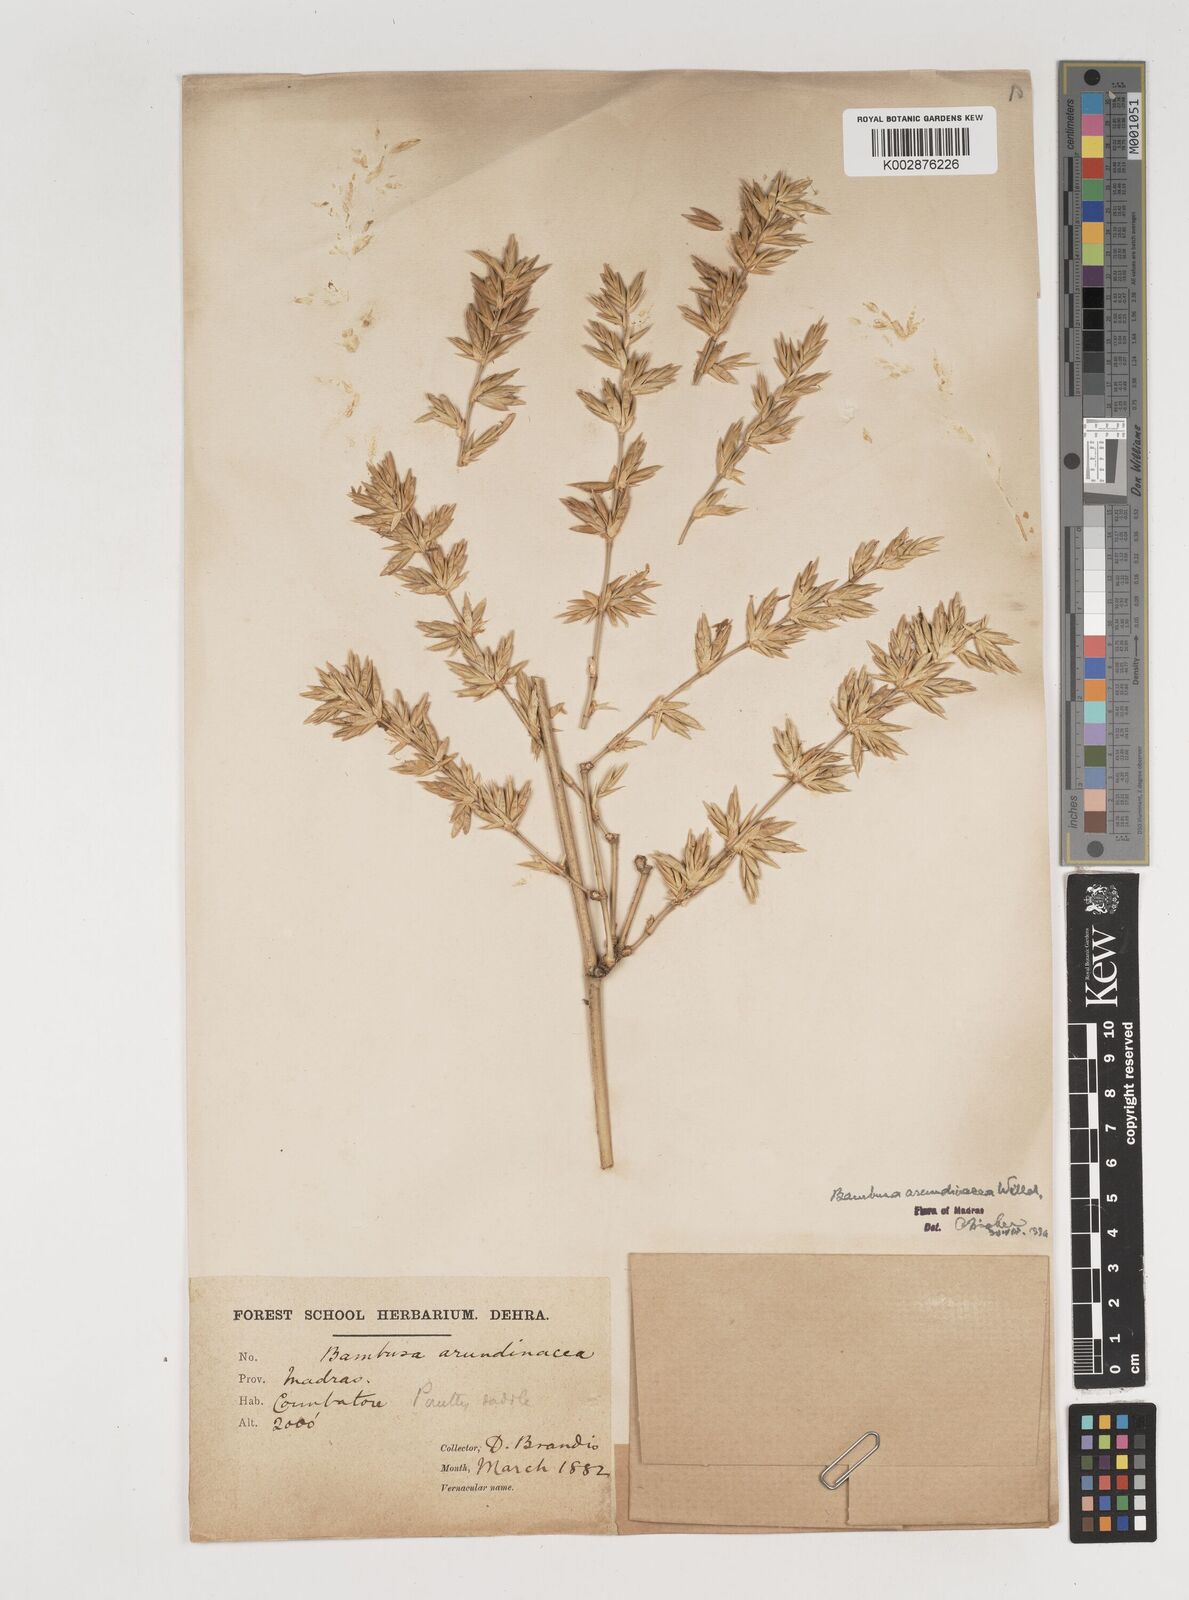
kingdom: Plantae
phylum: Tracheophyta
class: Liliopsida
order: Poales
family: Poaceae
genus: Bambusa
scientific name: Bambusa bambos
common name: Indian thorny bamboo
